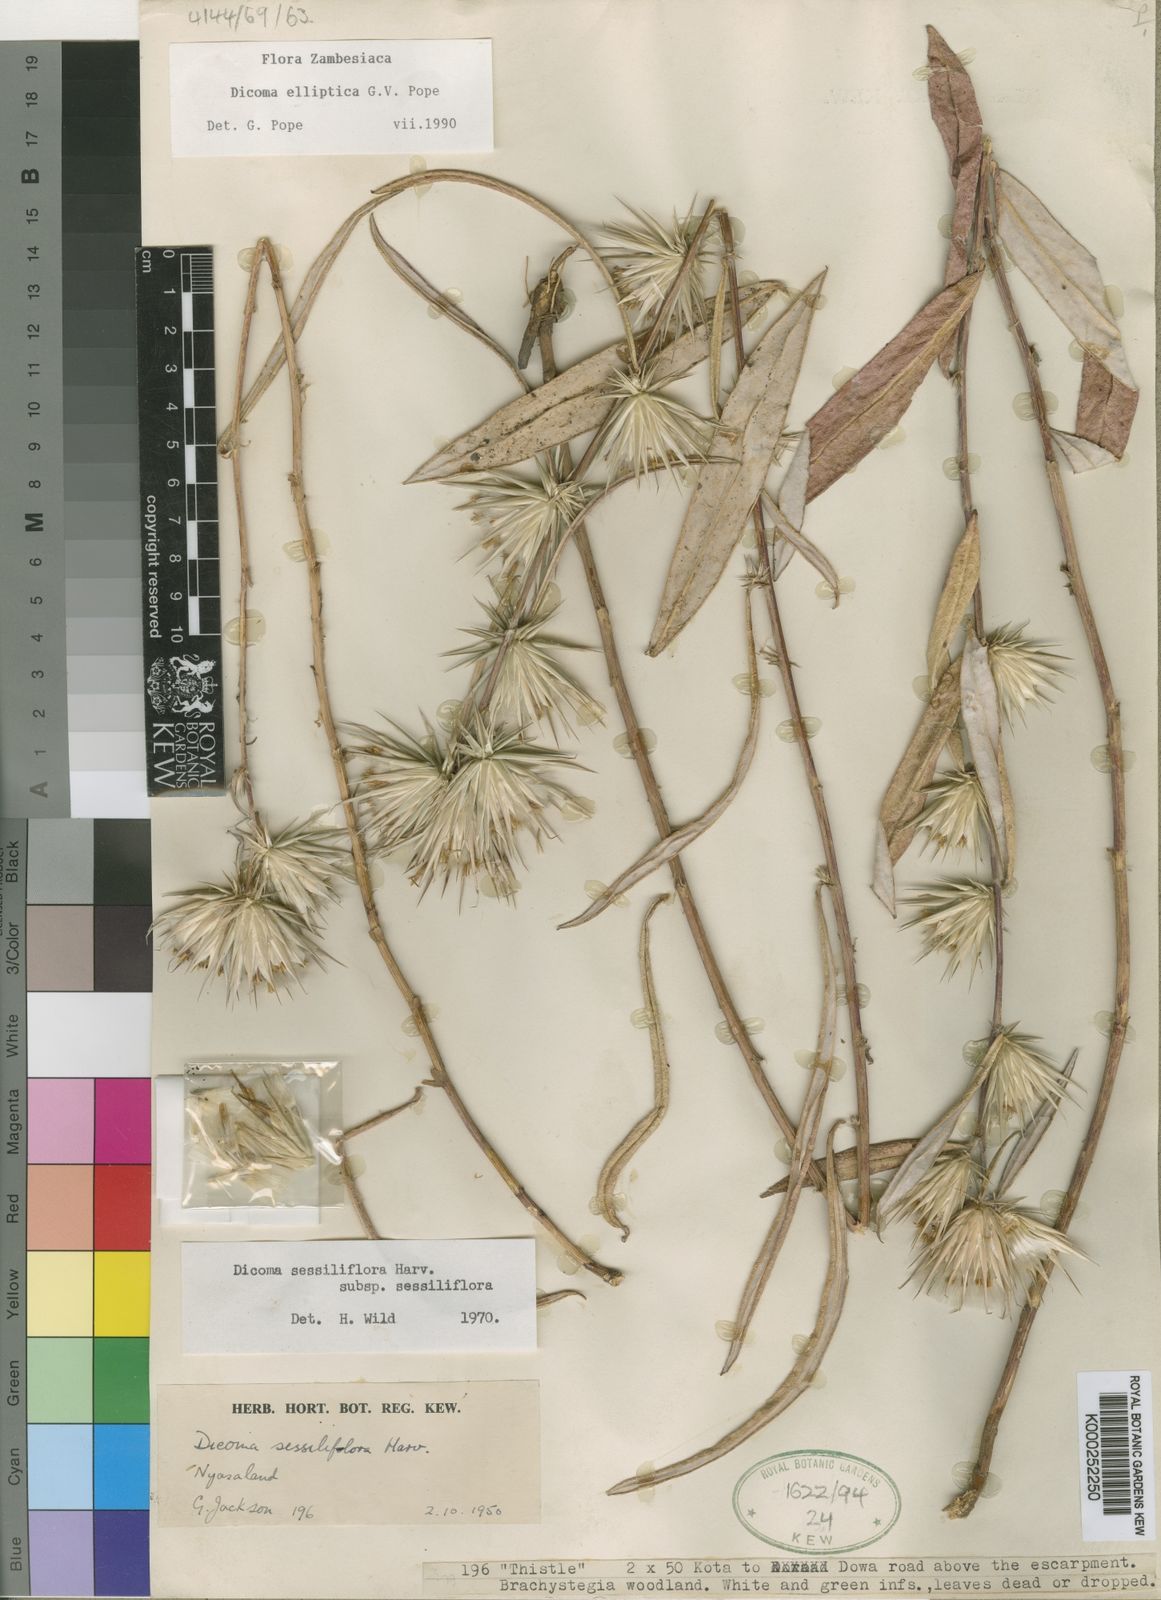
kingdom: Plantae
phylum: Tracheophyta
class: Magnoliopsida
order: Asterales
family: Asteraceae
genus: Macledium
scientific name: Macledium ellipticum
